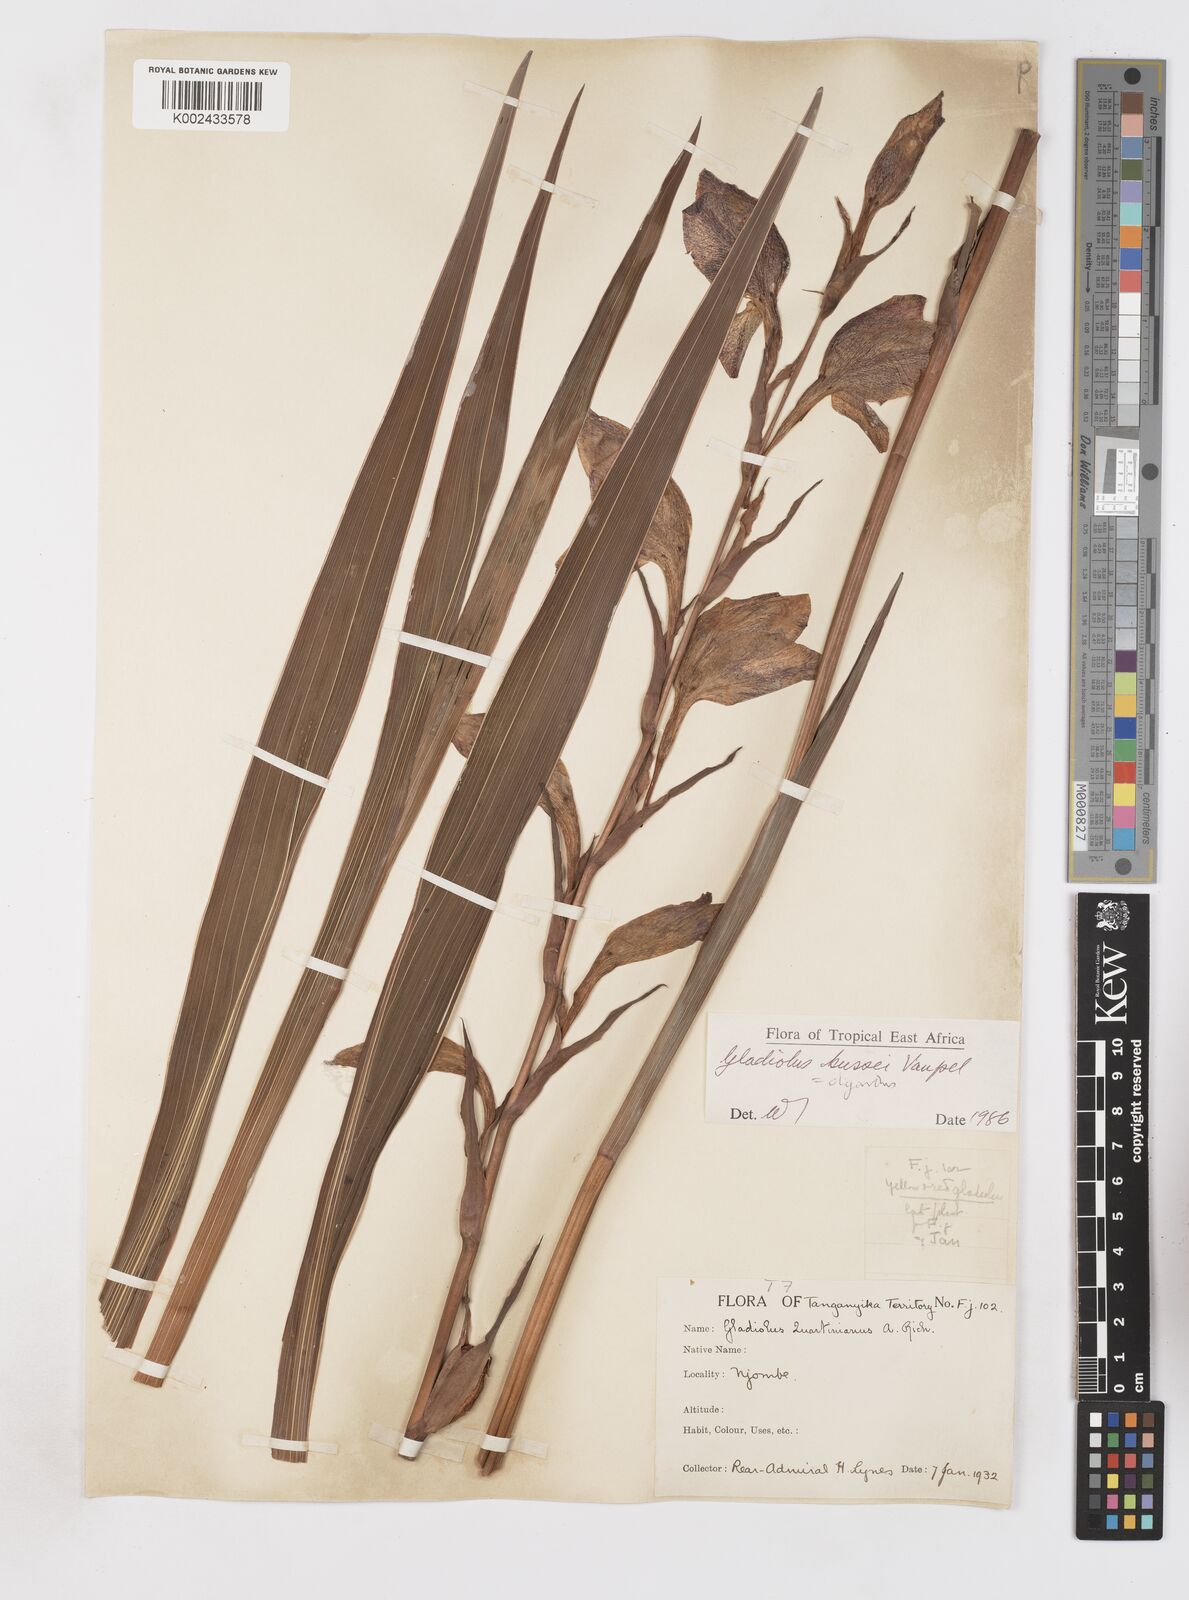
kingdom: Plantae
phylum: Tracheophyta
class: Liliopsida
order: Asparagales
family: Iridaceae
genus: Gladiolus
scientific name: Gladiolus oliganthus
